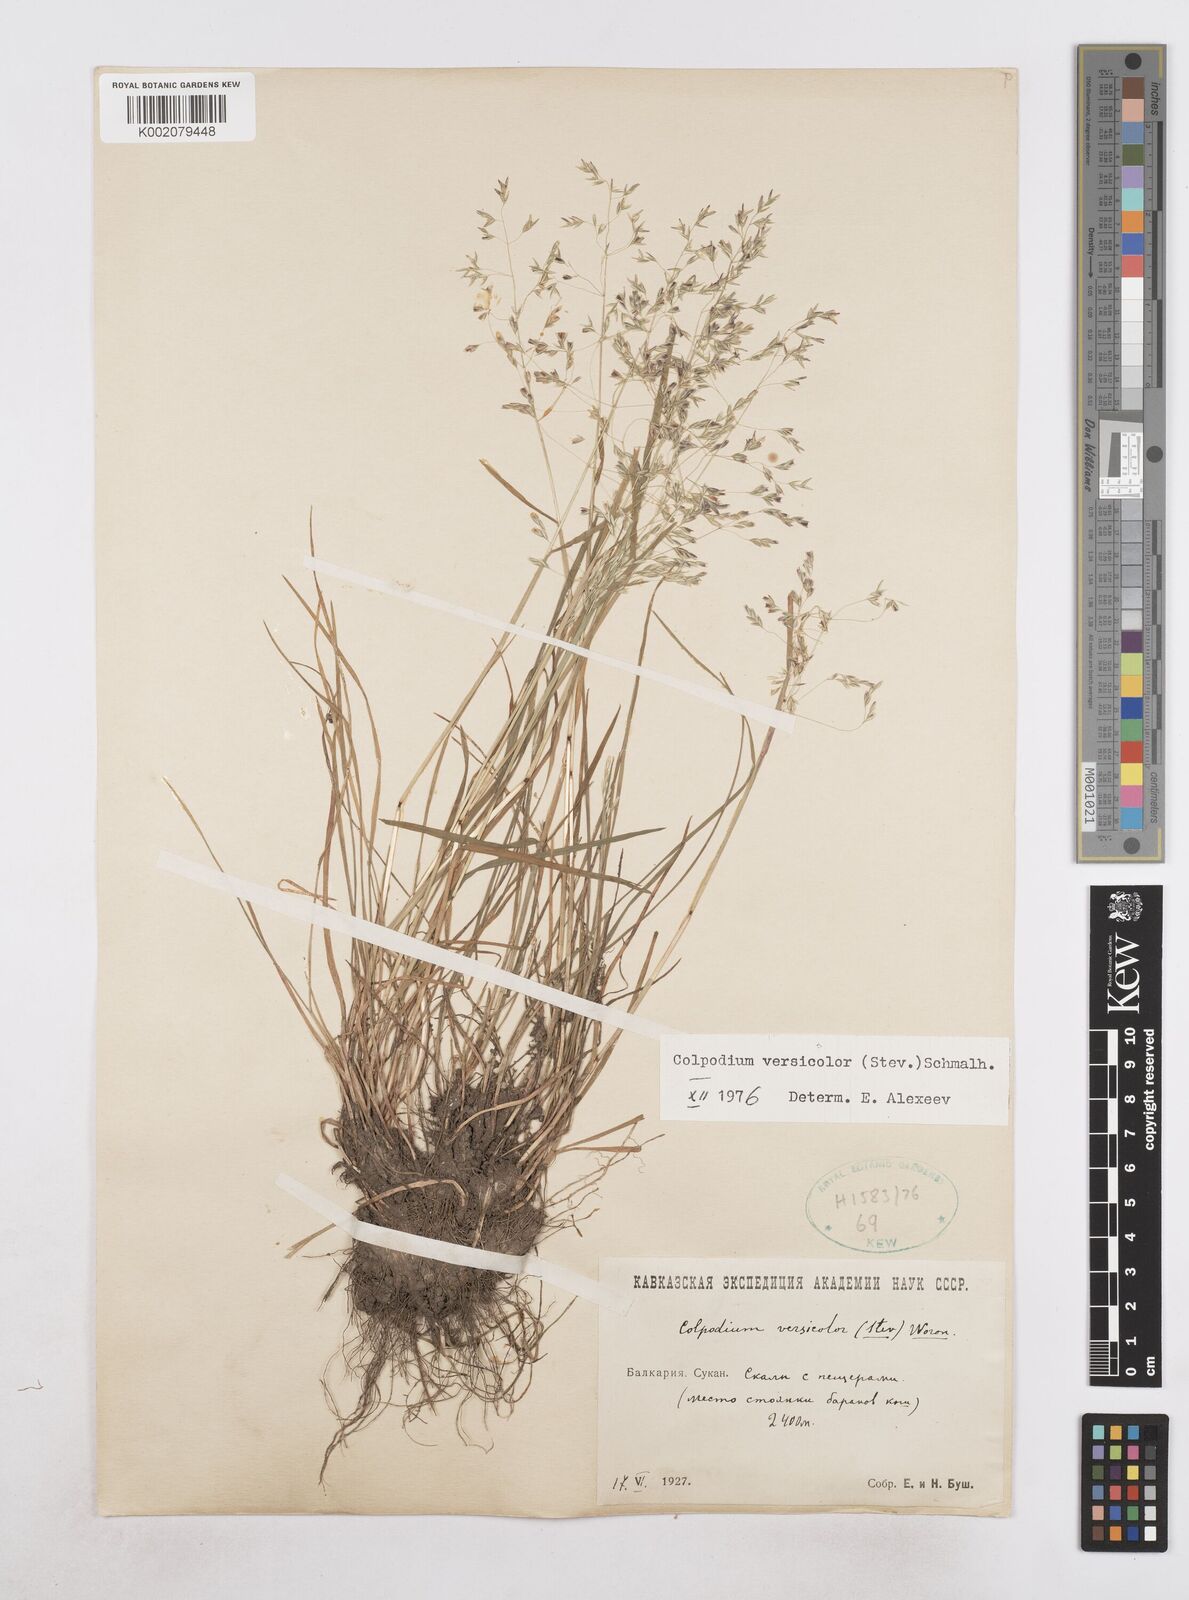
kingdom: Plantae
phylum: Tracheophyta
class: Liliopsida
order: Poales
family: Poaceae
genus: Colpodium
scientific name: Colpodium versicolor
